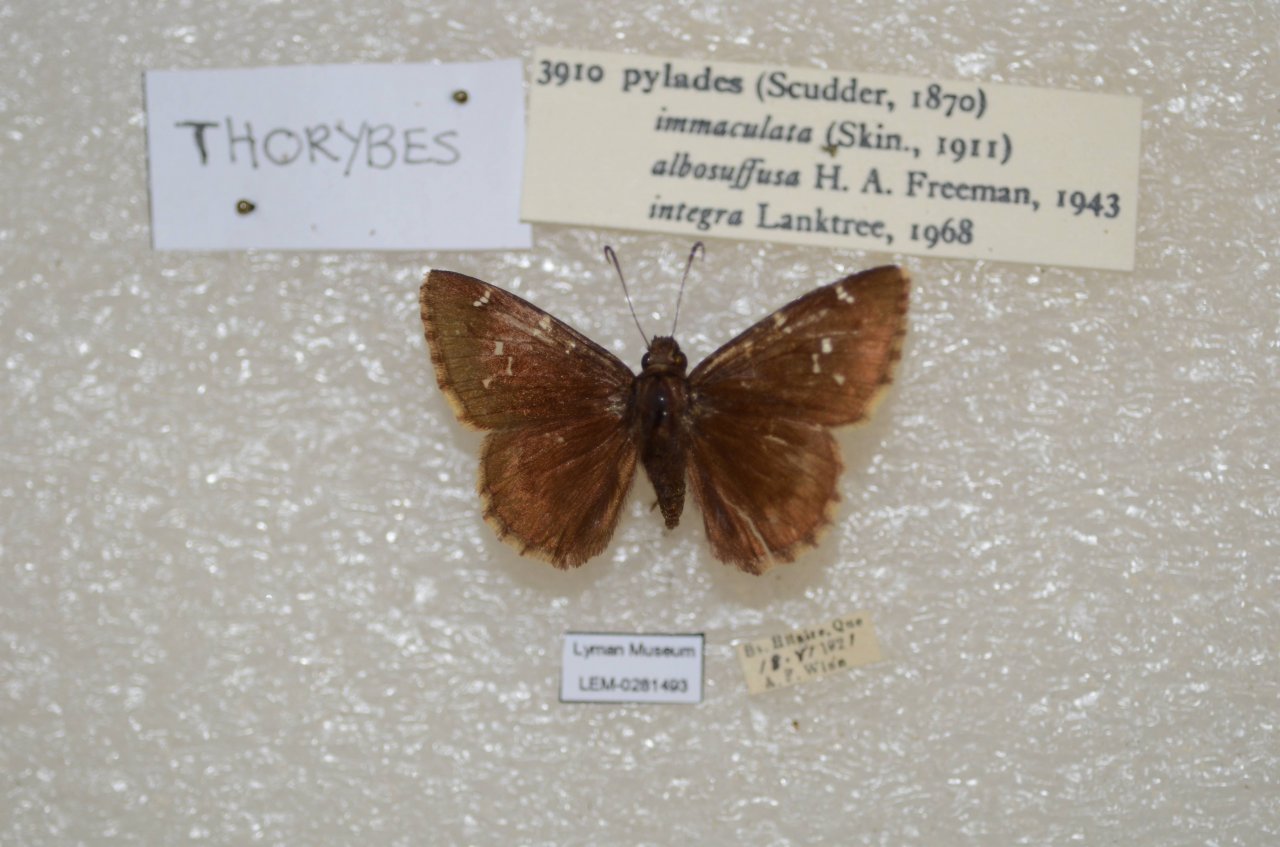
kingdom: Animalia
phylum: Arthropoda
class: Insecta
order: Lepidoptera
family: Hesperiidae
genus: Autochton
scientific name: Autochton
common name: Northern Cloudywing
